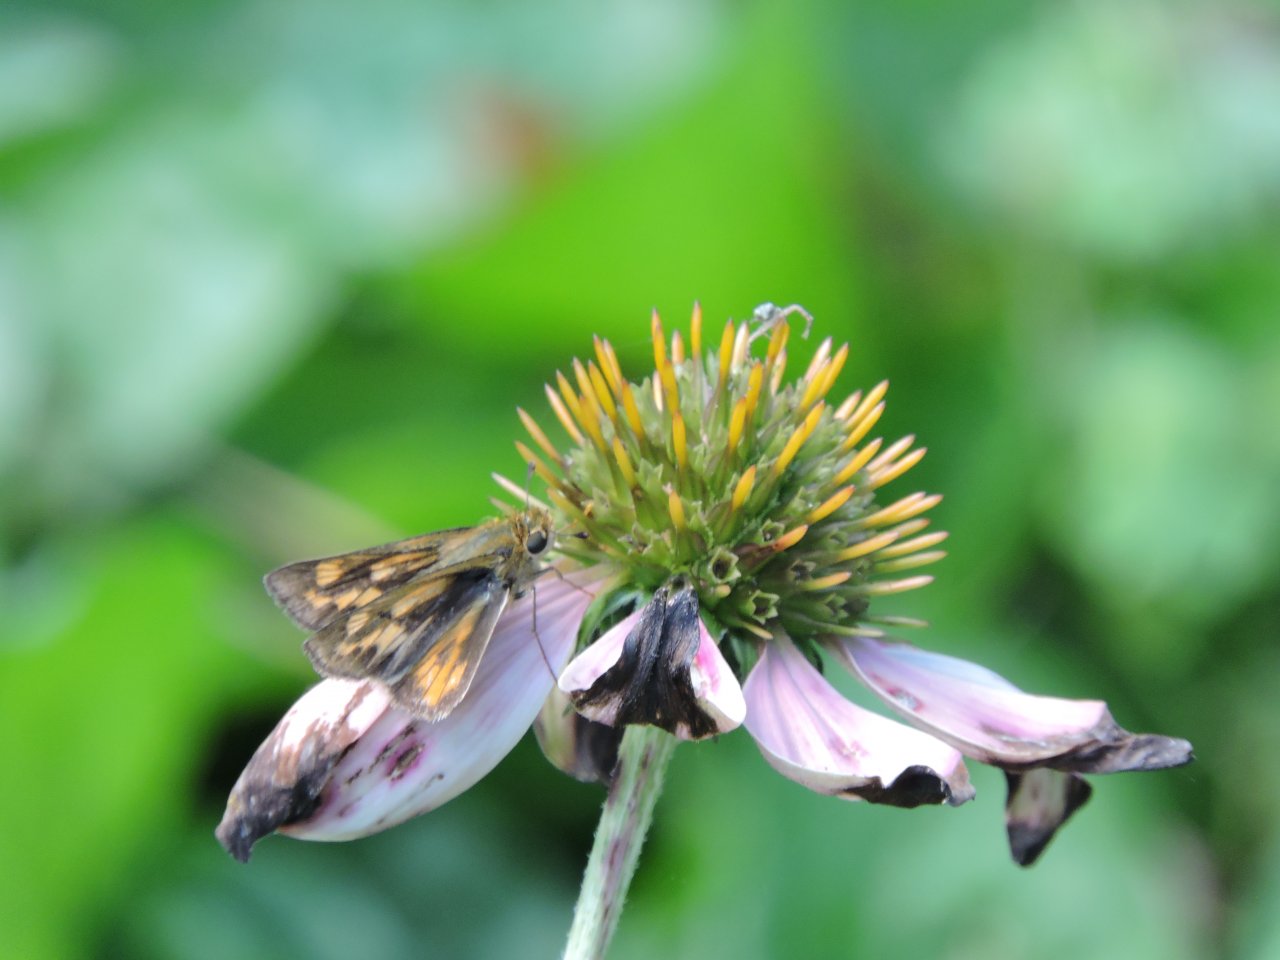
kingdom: Animalia
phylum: Arthropoda
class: Insecta
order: Lepidoptera
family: Hesperiidae
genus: Hylephila
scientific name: Hylephila phyleus
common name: Fiery Skipper
